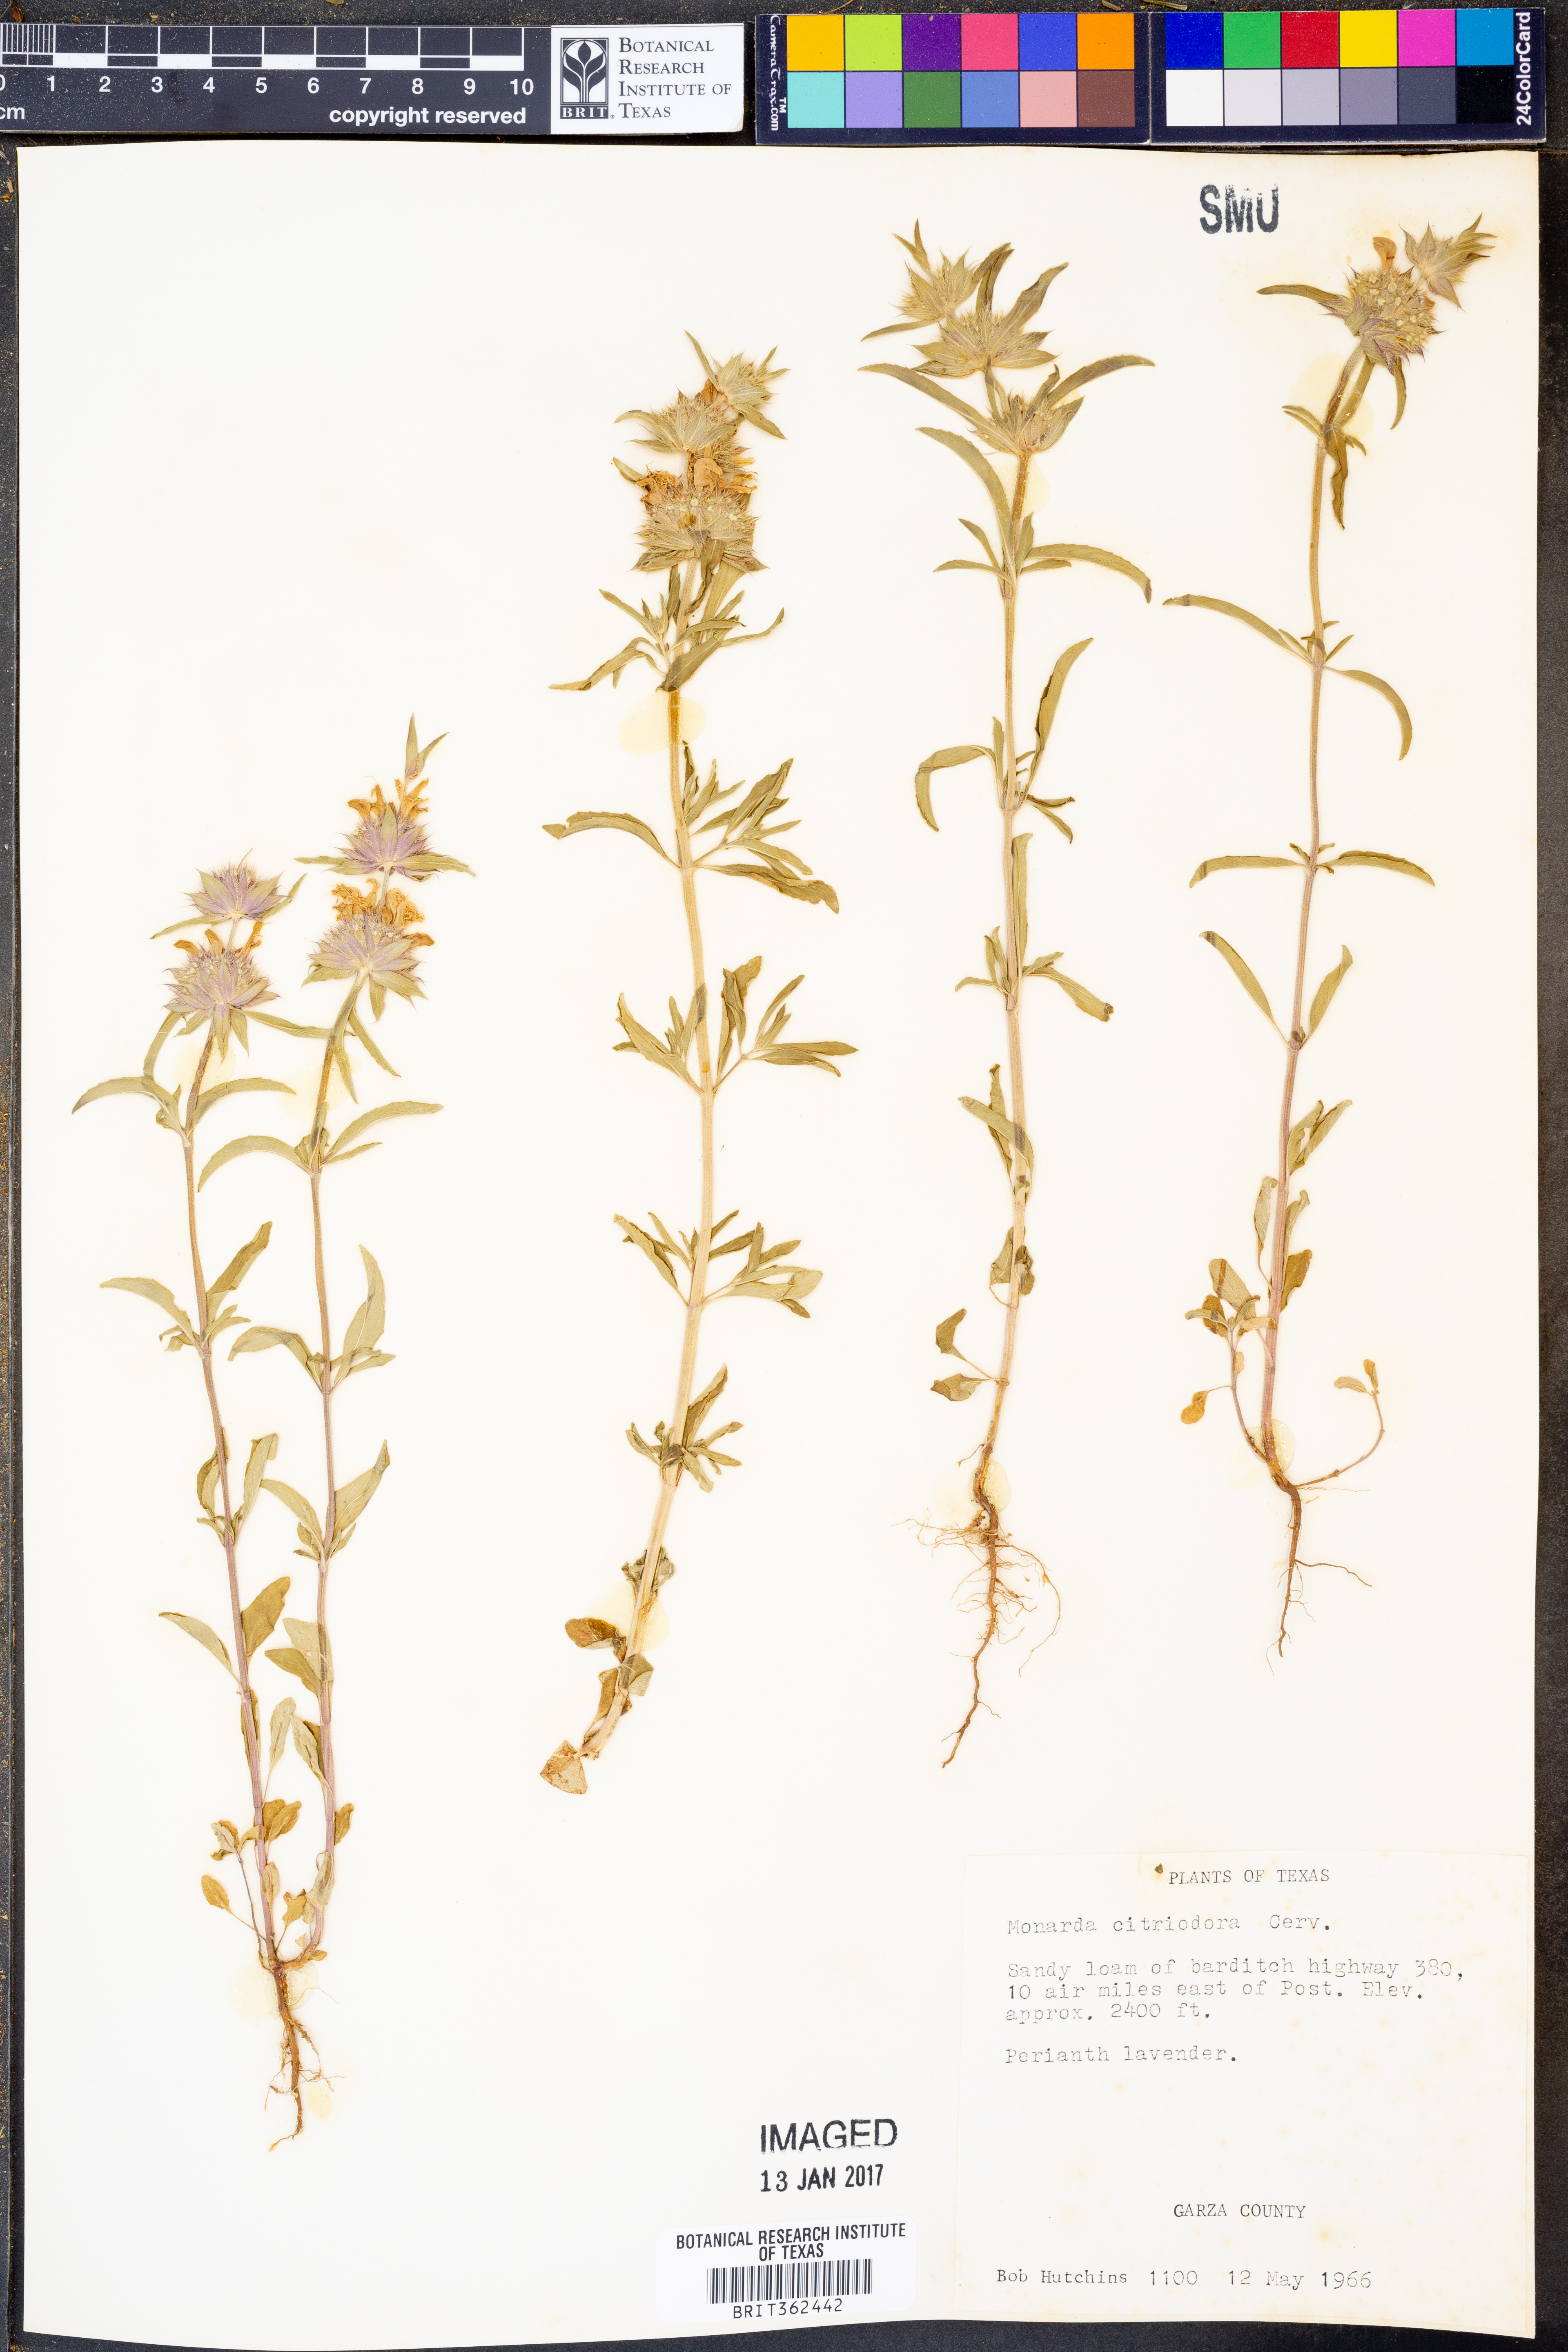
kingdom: Plantae
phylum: Tracheophyta
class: Magnoliopsida
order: Lamiales
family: Lamiaceae
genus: Monarda
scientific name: Monarda citriodora
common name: Lemon beebalm
